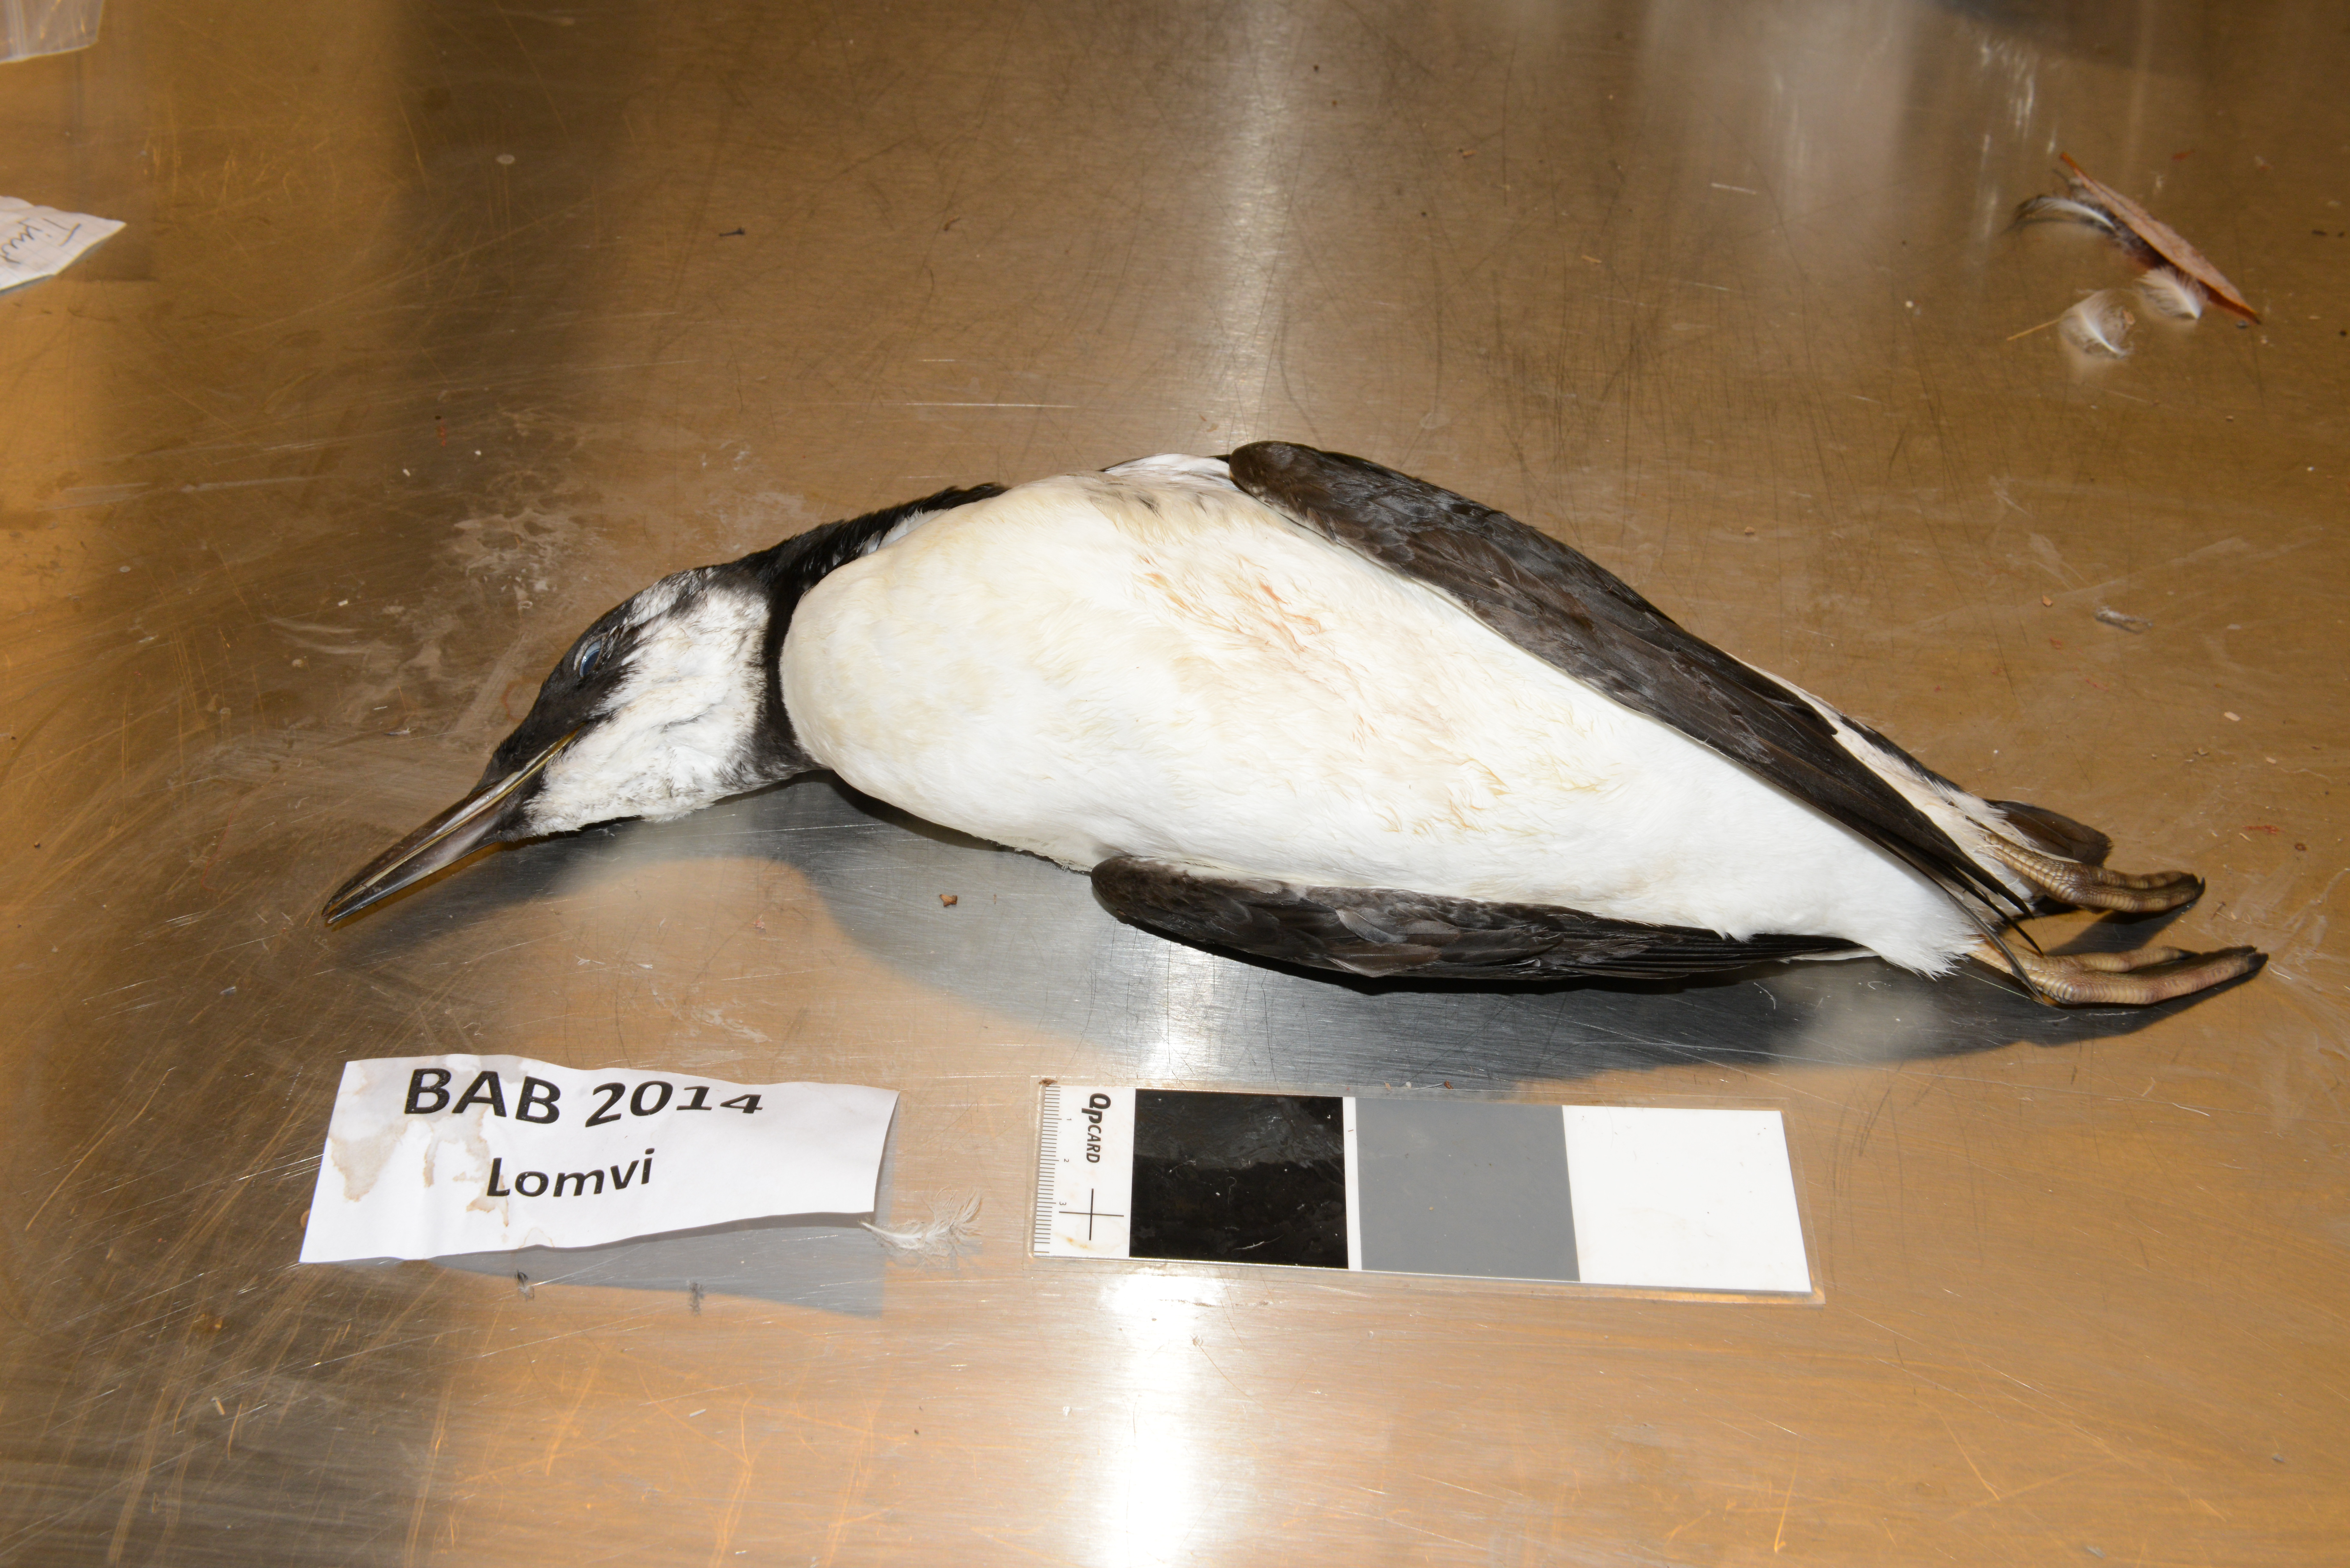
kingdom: Animalia
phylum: Chordata
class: Aves
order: Charadriiformes
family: Alcidae
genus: Uria
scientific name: Uria aalge
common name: Common murre
